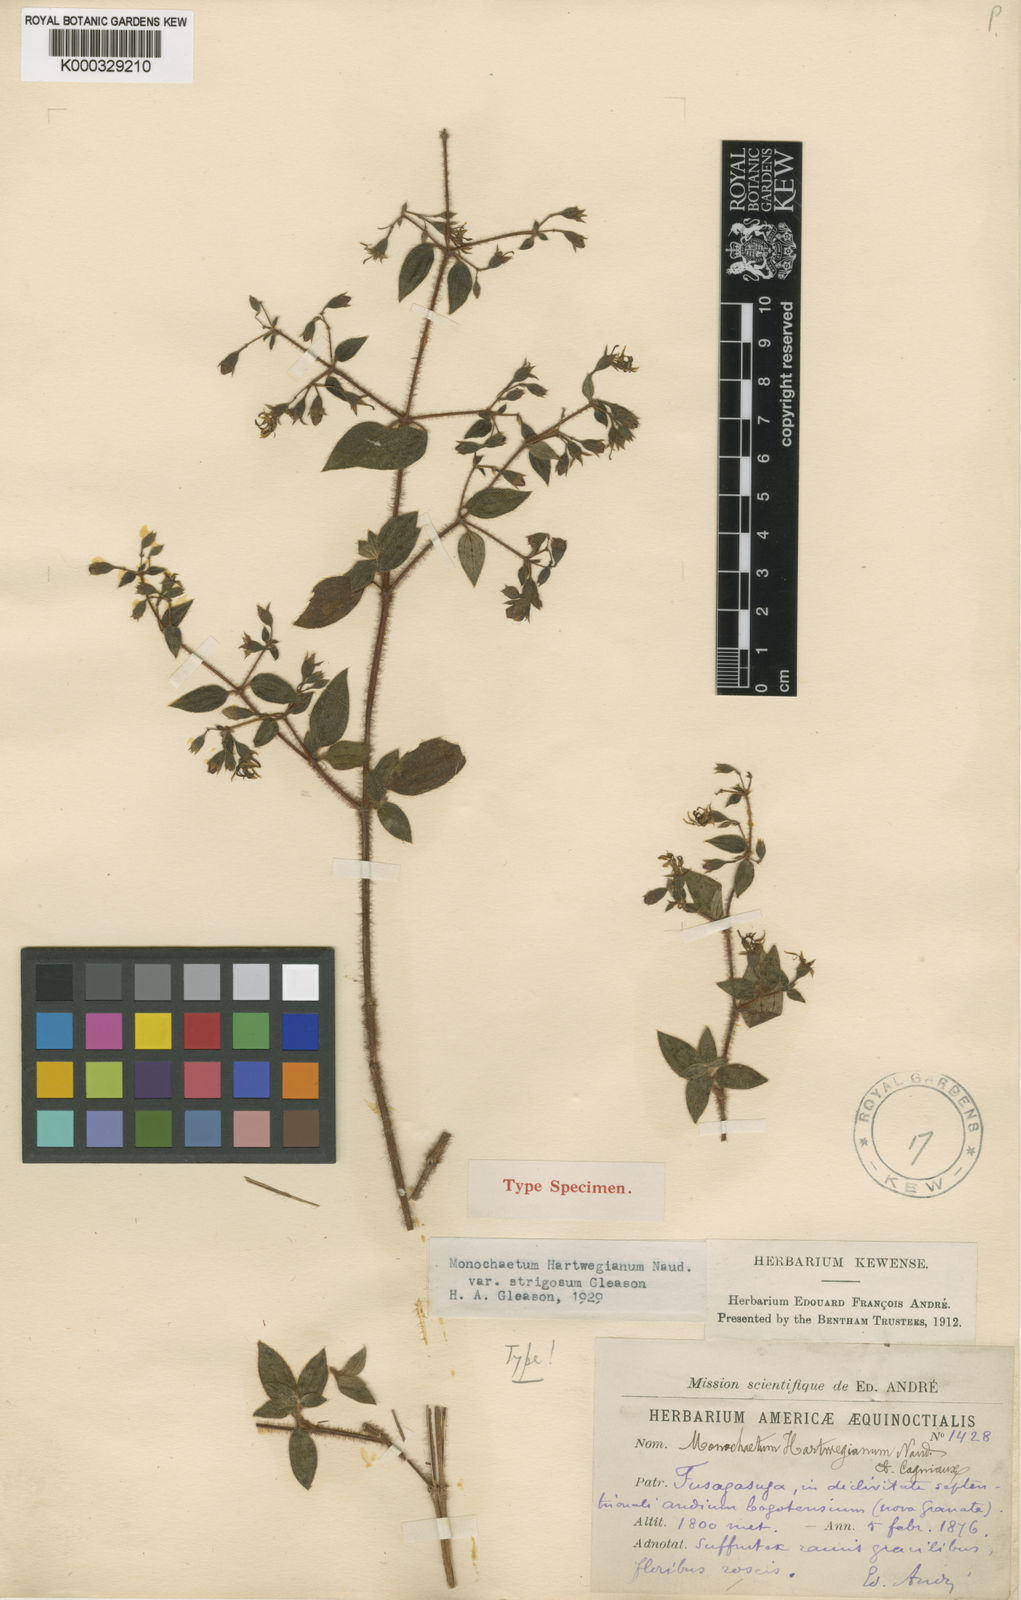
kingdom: Plantae
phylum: Tracheophyta
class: Magnoliopsida
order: Myrtales
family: Melastomataceae
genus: Monochaetum
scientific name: Monochaetum floribundum
